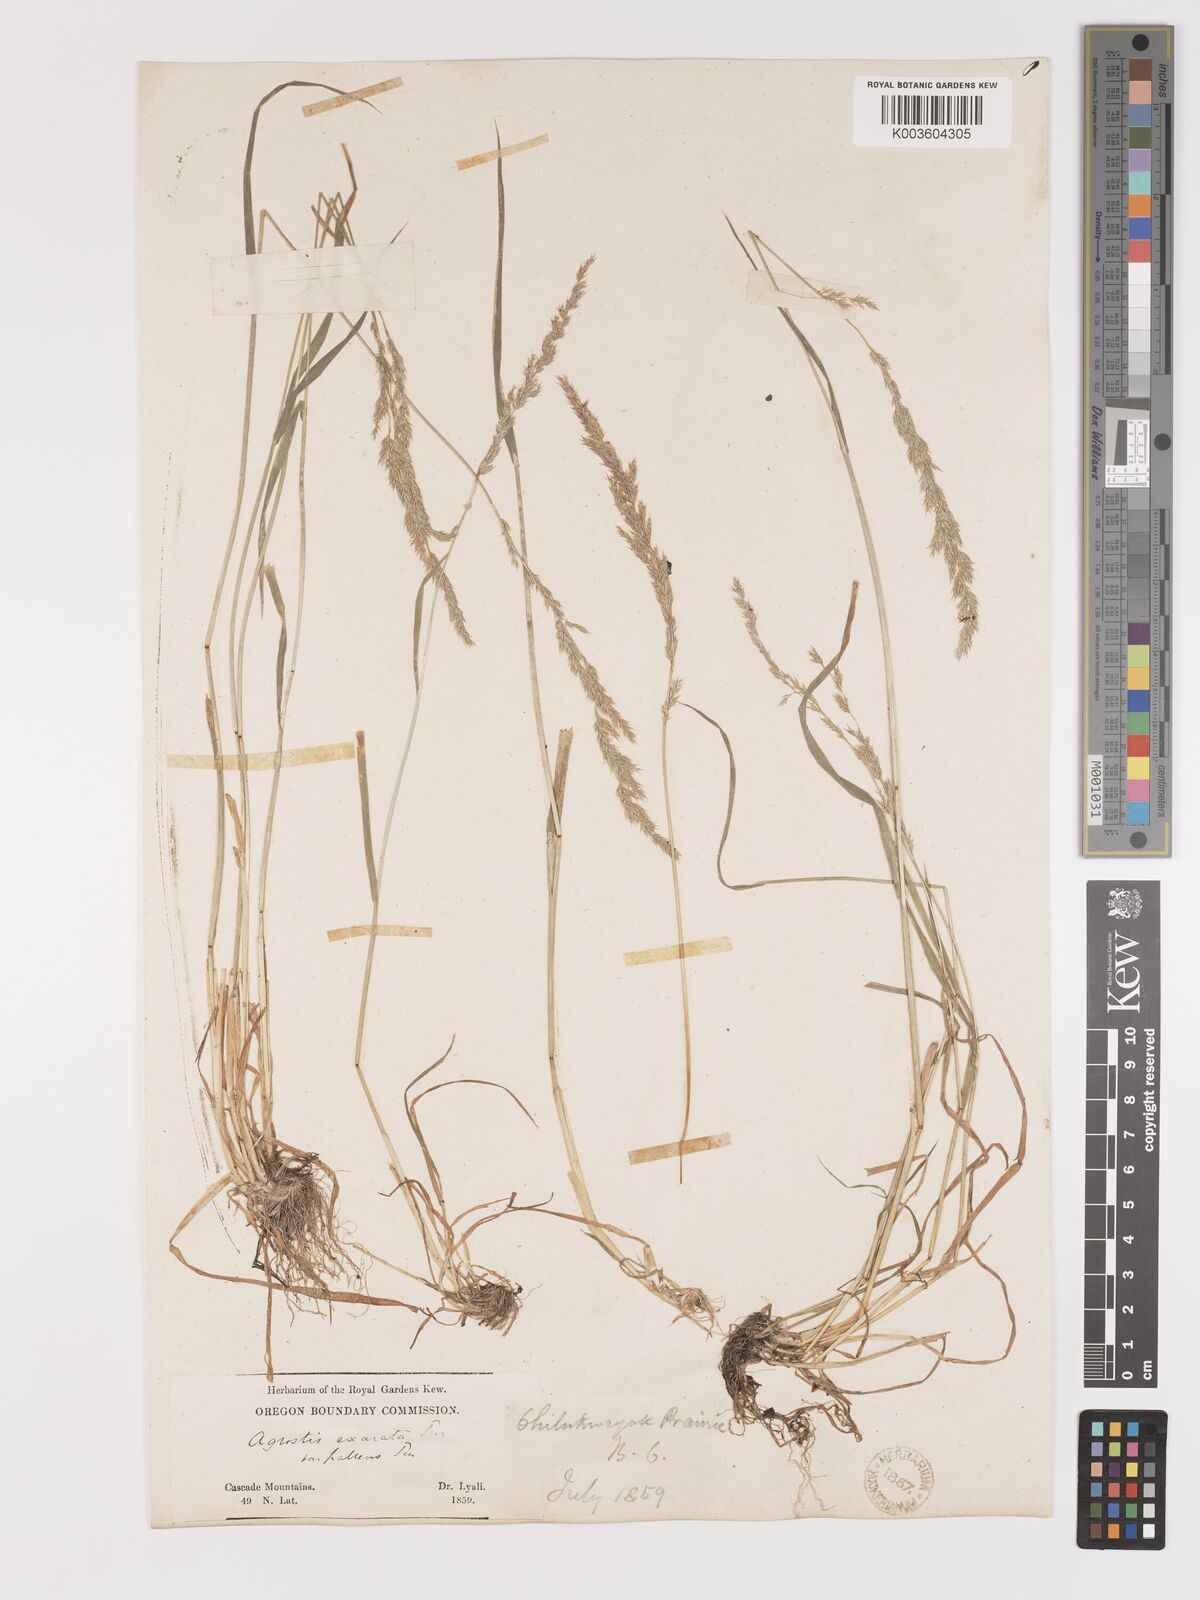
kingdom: Plantae
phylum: Tracheophyta
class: Liliopsida
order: Poales
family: Poaceae
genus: Agrostis
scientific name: Agrostis exarata
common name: Spike bent
